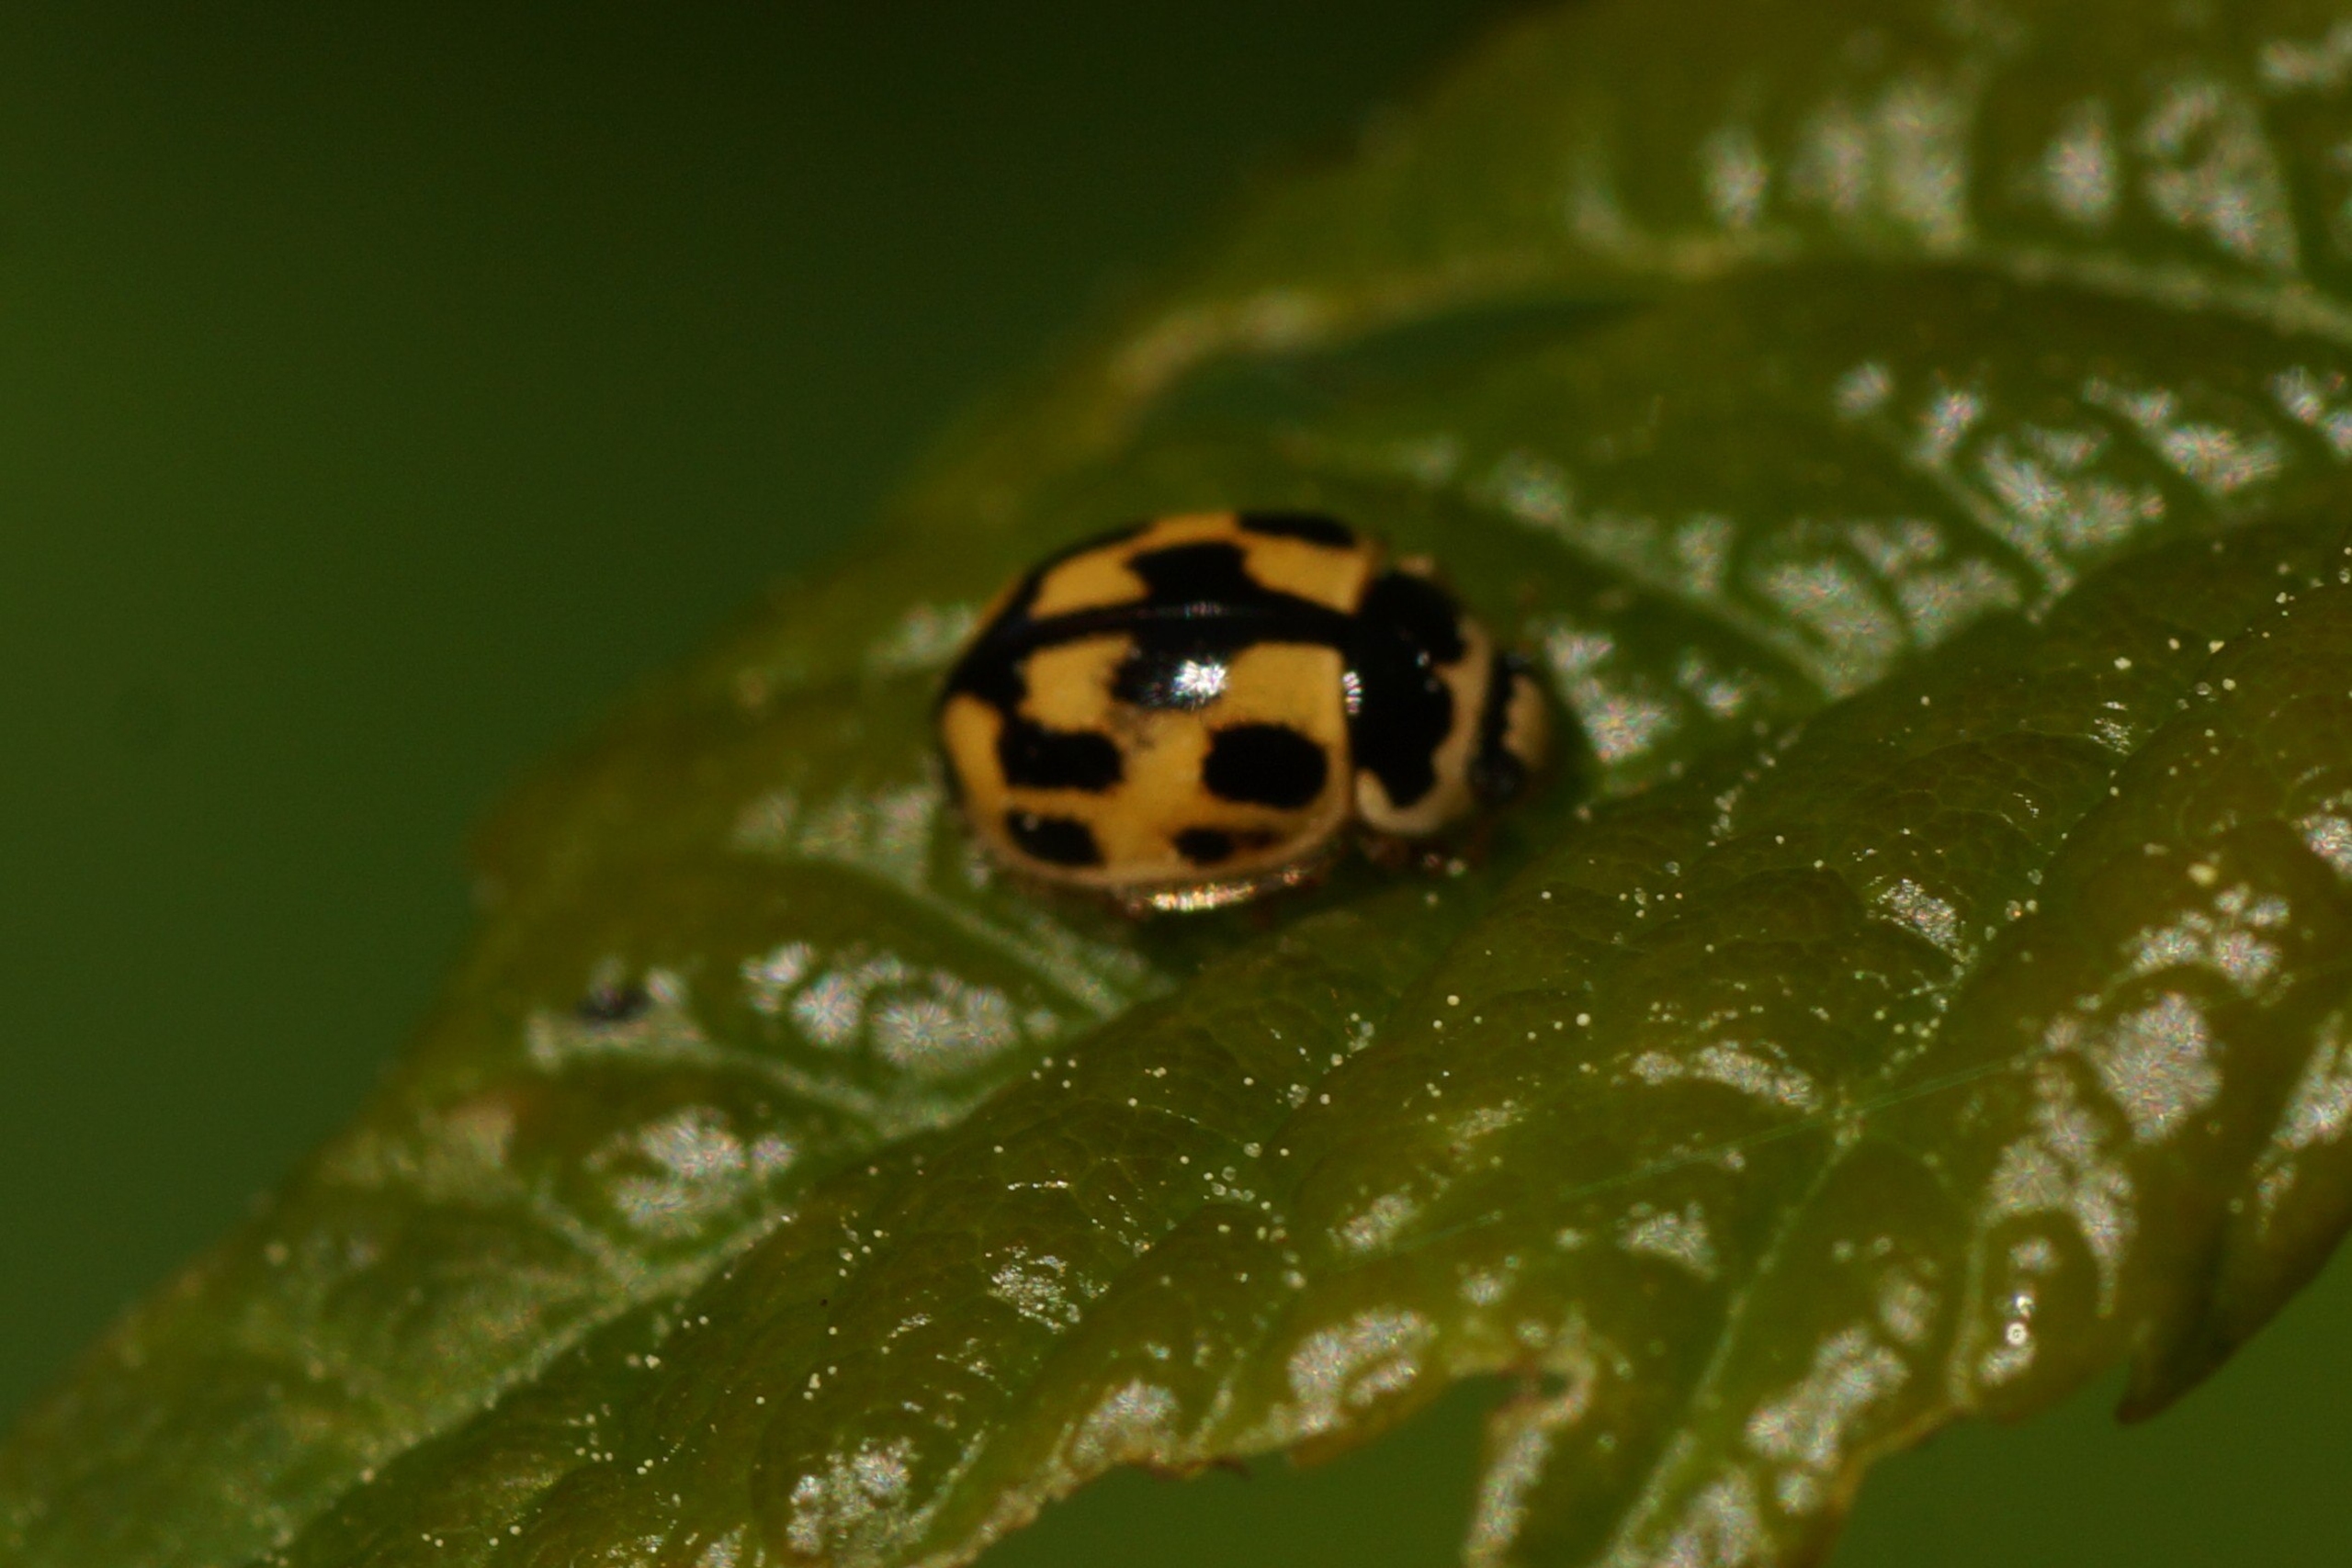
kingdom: Animalia
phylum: Arthropoda
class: Insecta
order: Coleoptera
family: Coccinellidae
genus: Propylaea
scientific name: Propylaea quatuordecimpunctata
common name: Skakbræt
